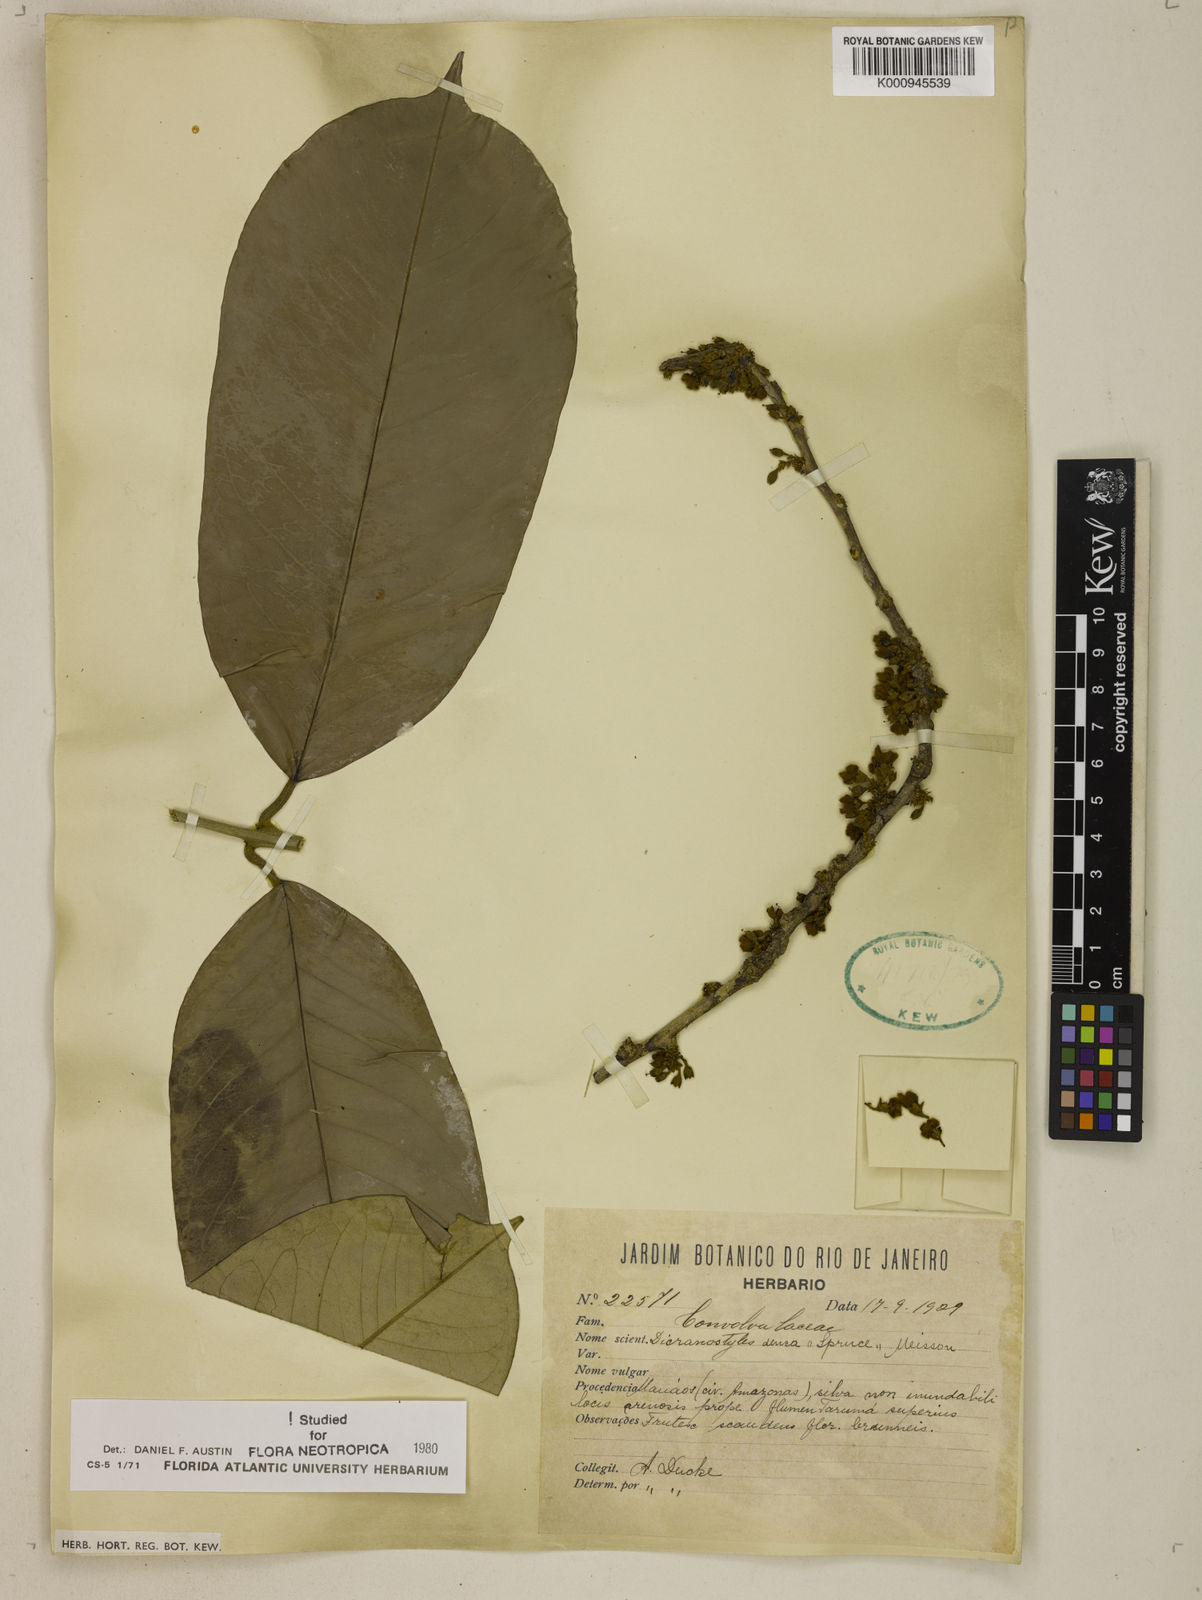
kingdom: Plantae
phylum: Tracheophyta
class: Magnoliopsida
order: Solanales
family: Convolvulaceae
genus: Dicranostyles
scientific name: Dicranostyles densa
